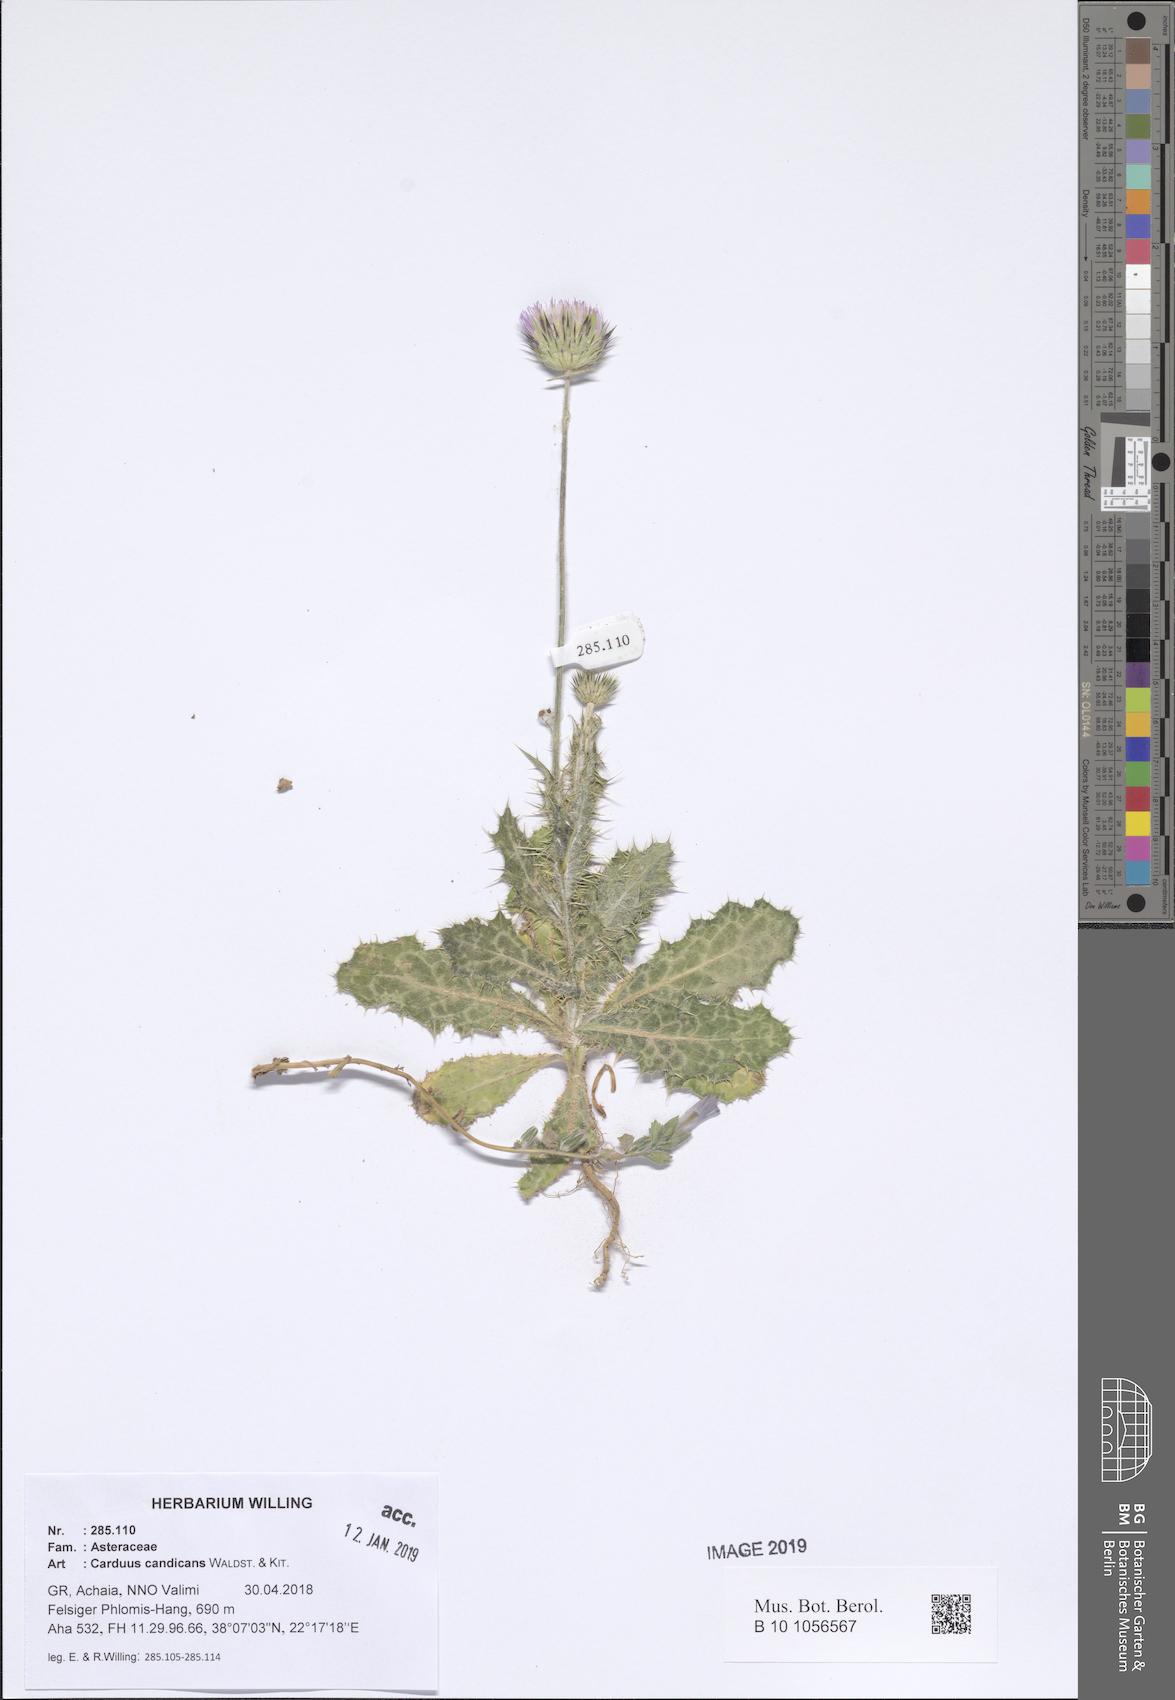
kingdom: Plantae
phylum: Tracheophyta
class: Magnoliopsida
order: Asterales
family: Asteraceae
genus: Carduus
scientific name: Carduus candicans
